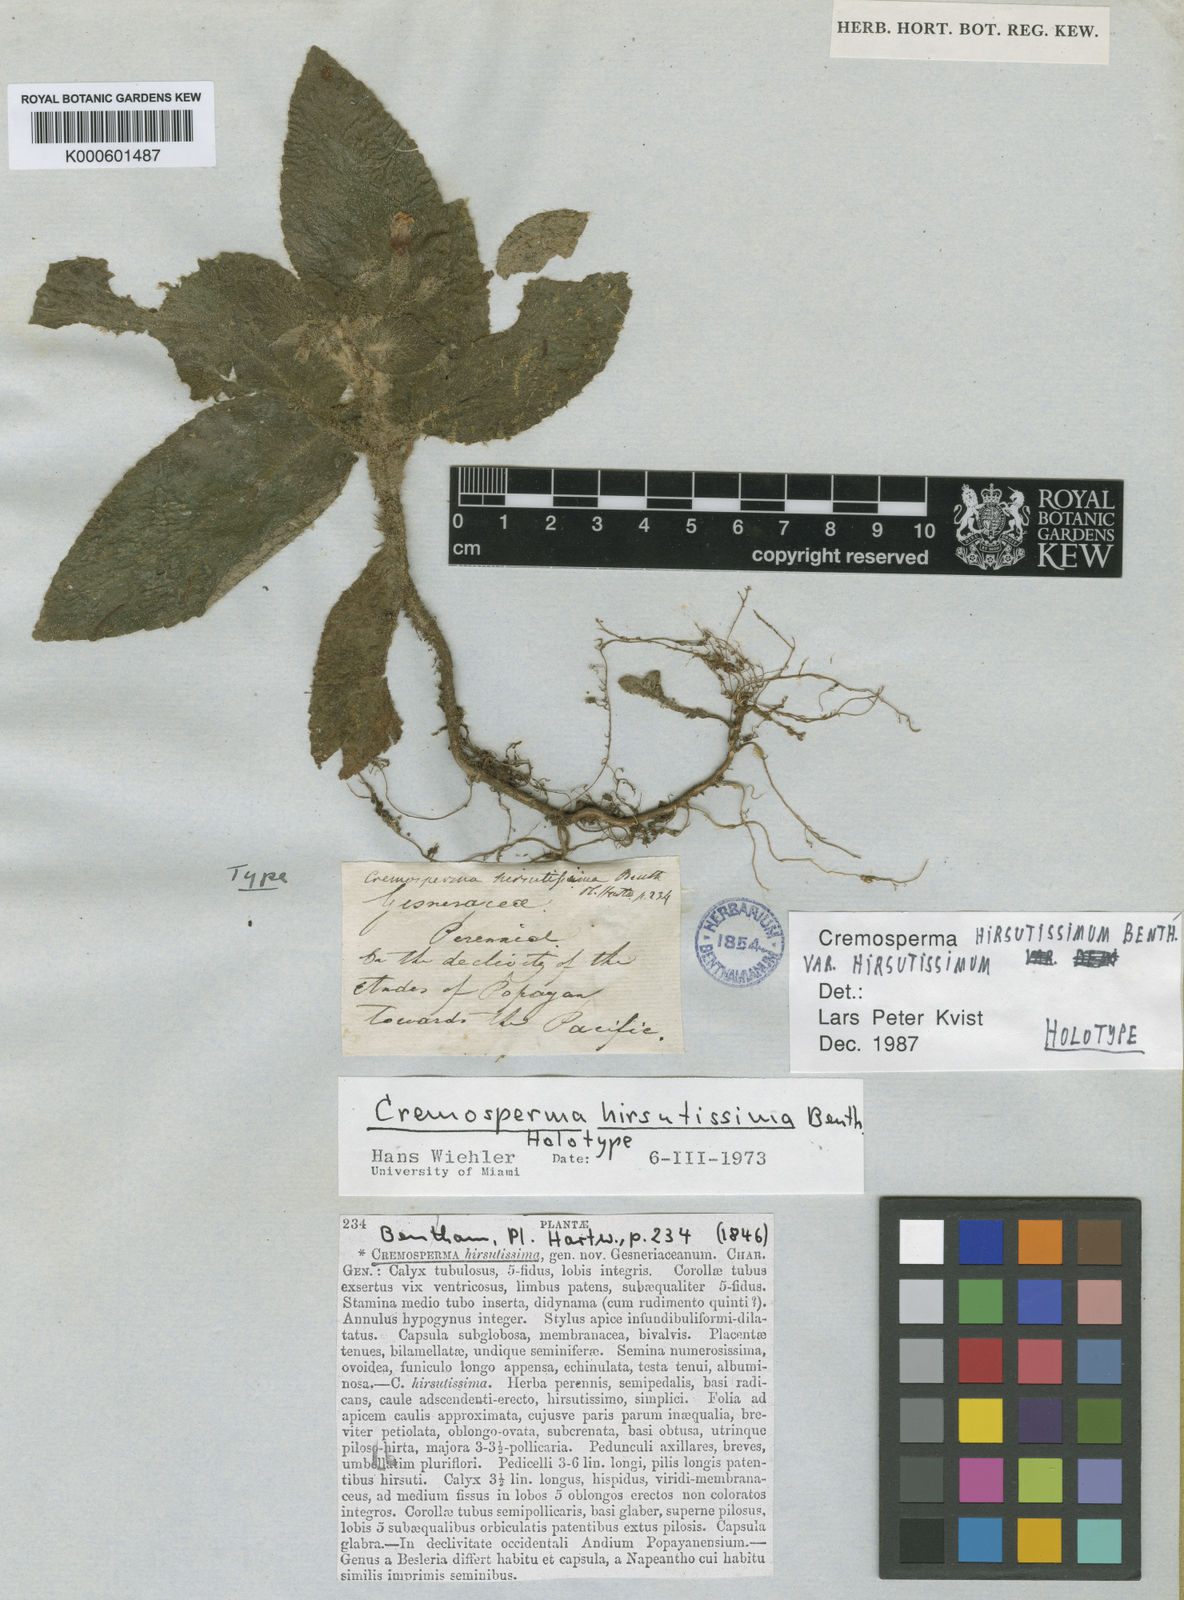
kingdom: Plantae
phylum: Tracheophyta
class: Magnoliopsida
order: Lamiales
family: Gesneriaceae
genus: Cremosperma
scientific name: Cremosperma hirsutissimum
